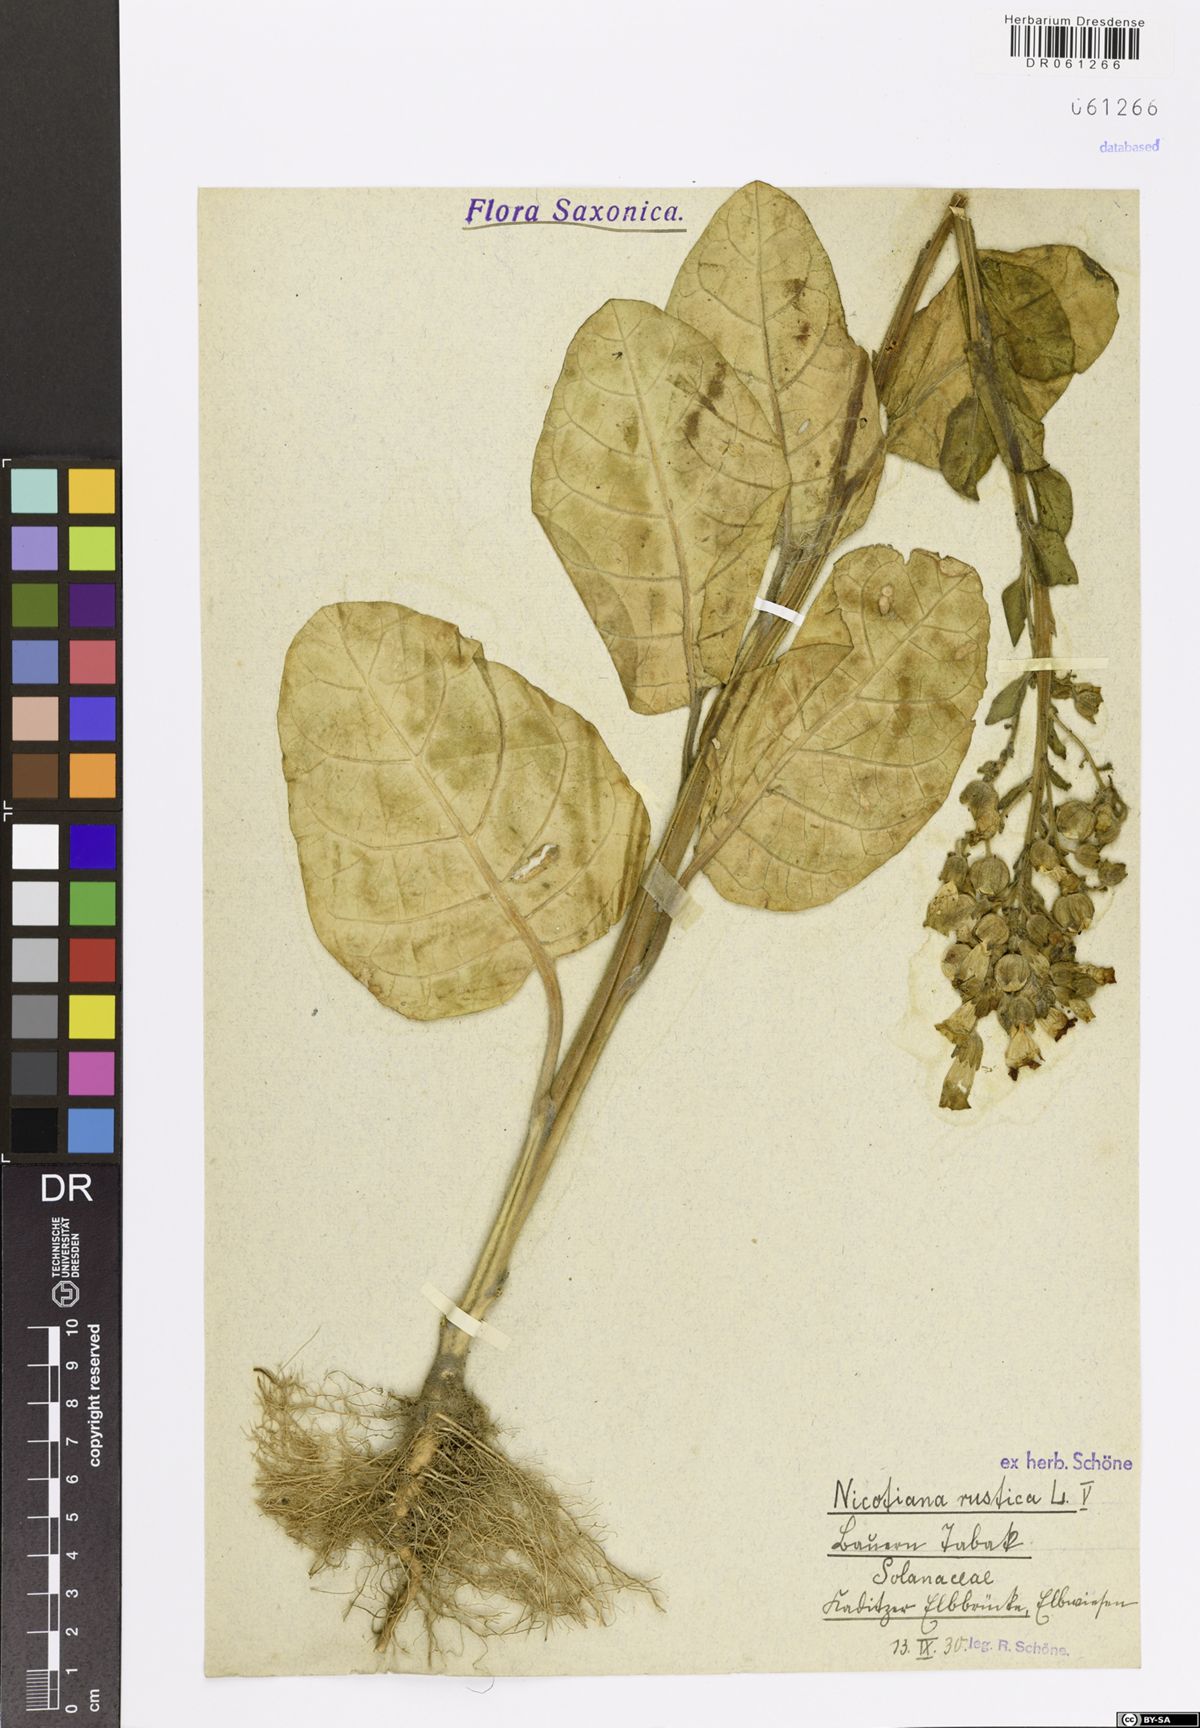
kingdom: Plantae
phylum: Tracheophyta
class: Magnoliopsida
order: Solanales
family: Solanaceae
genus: Nicotiana
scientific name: Nicotiana rustica
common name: Wild tobacco
